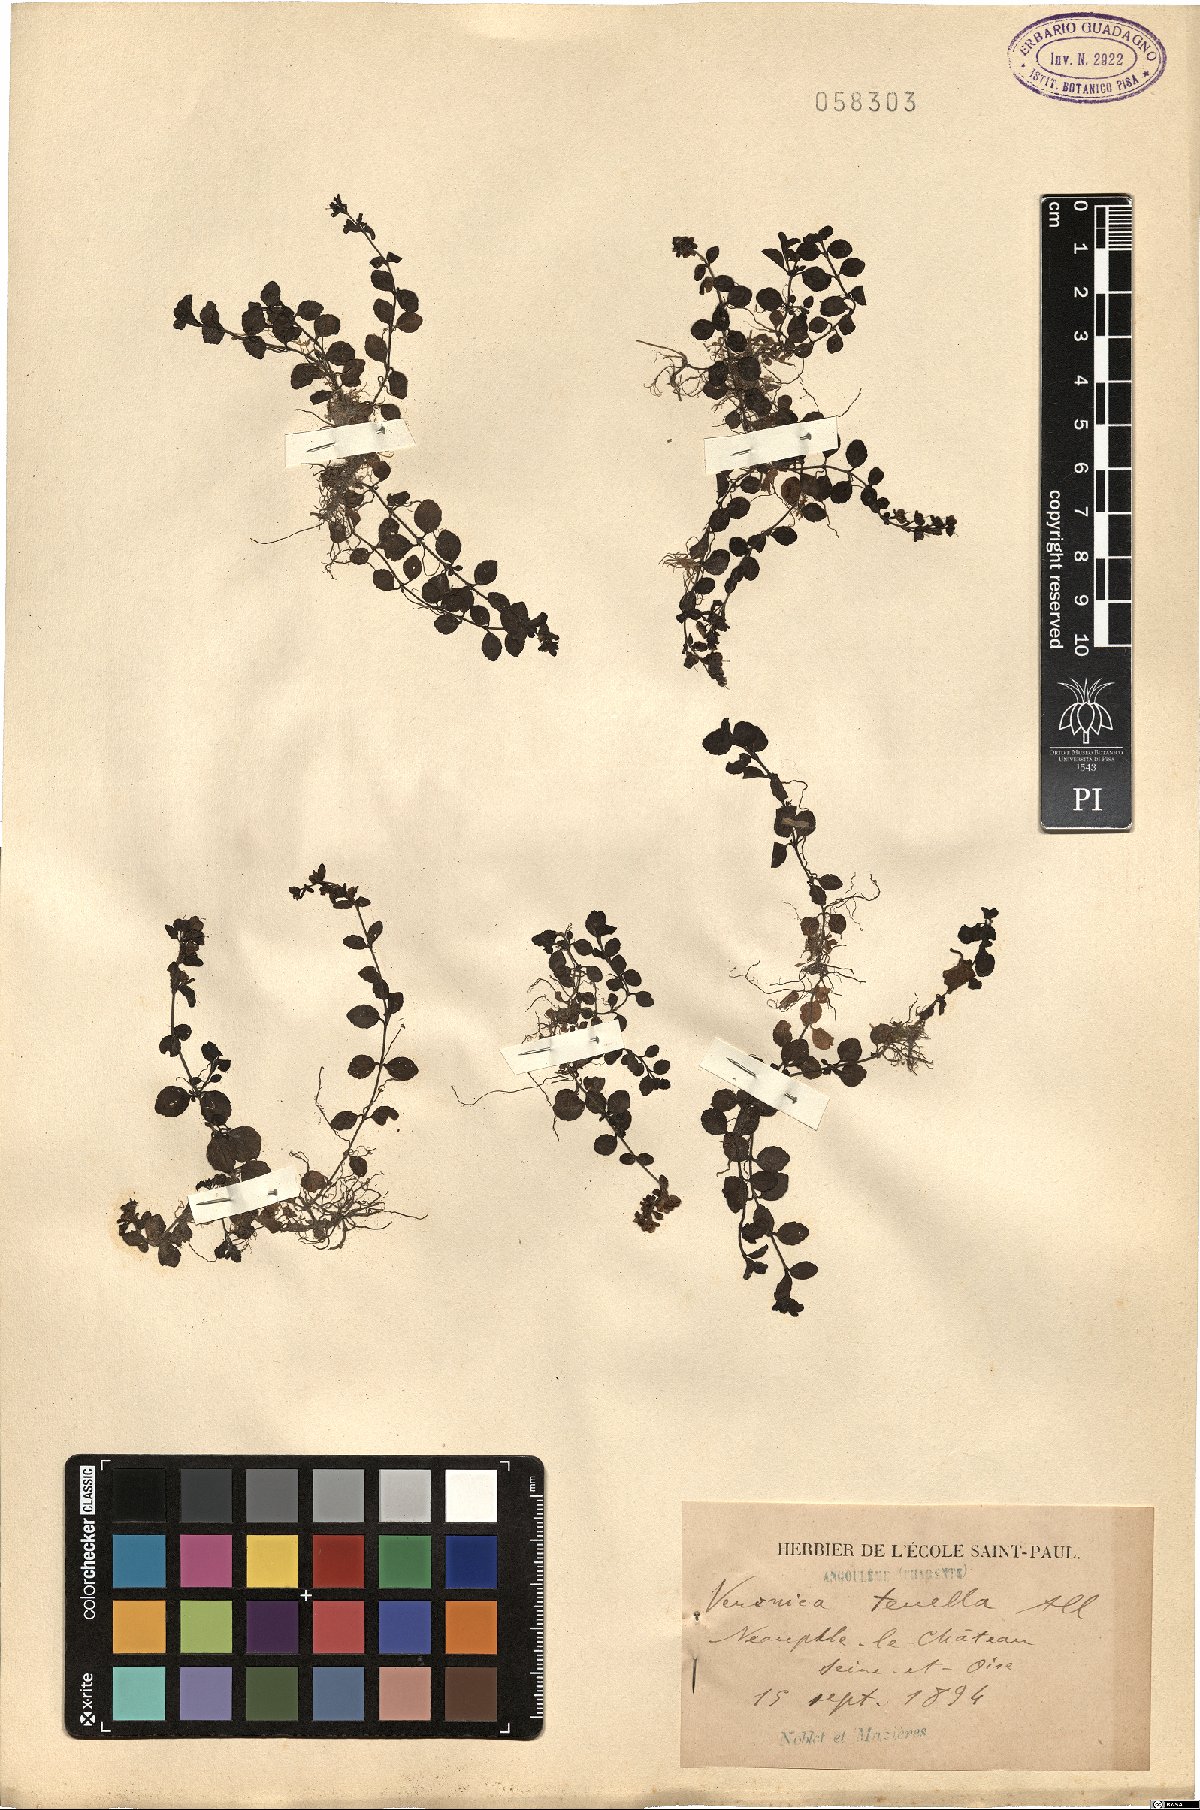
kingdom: Plantae
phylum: Tracheophyta
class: Magnoliopsida
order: Lamiales
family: Plantaginaceae
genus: Veronica
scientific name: Veronica serpyllifolia
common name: Thyme-leaved speedwell
